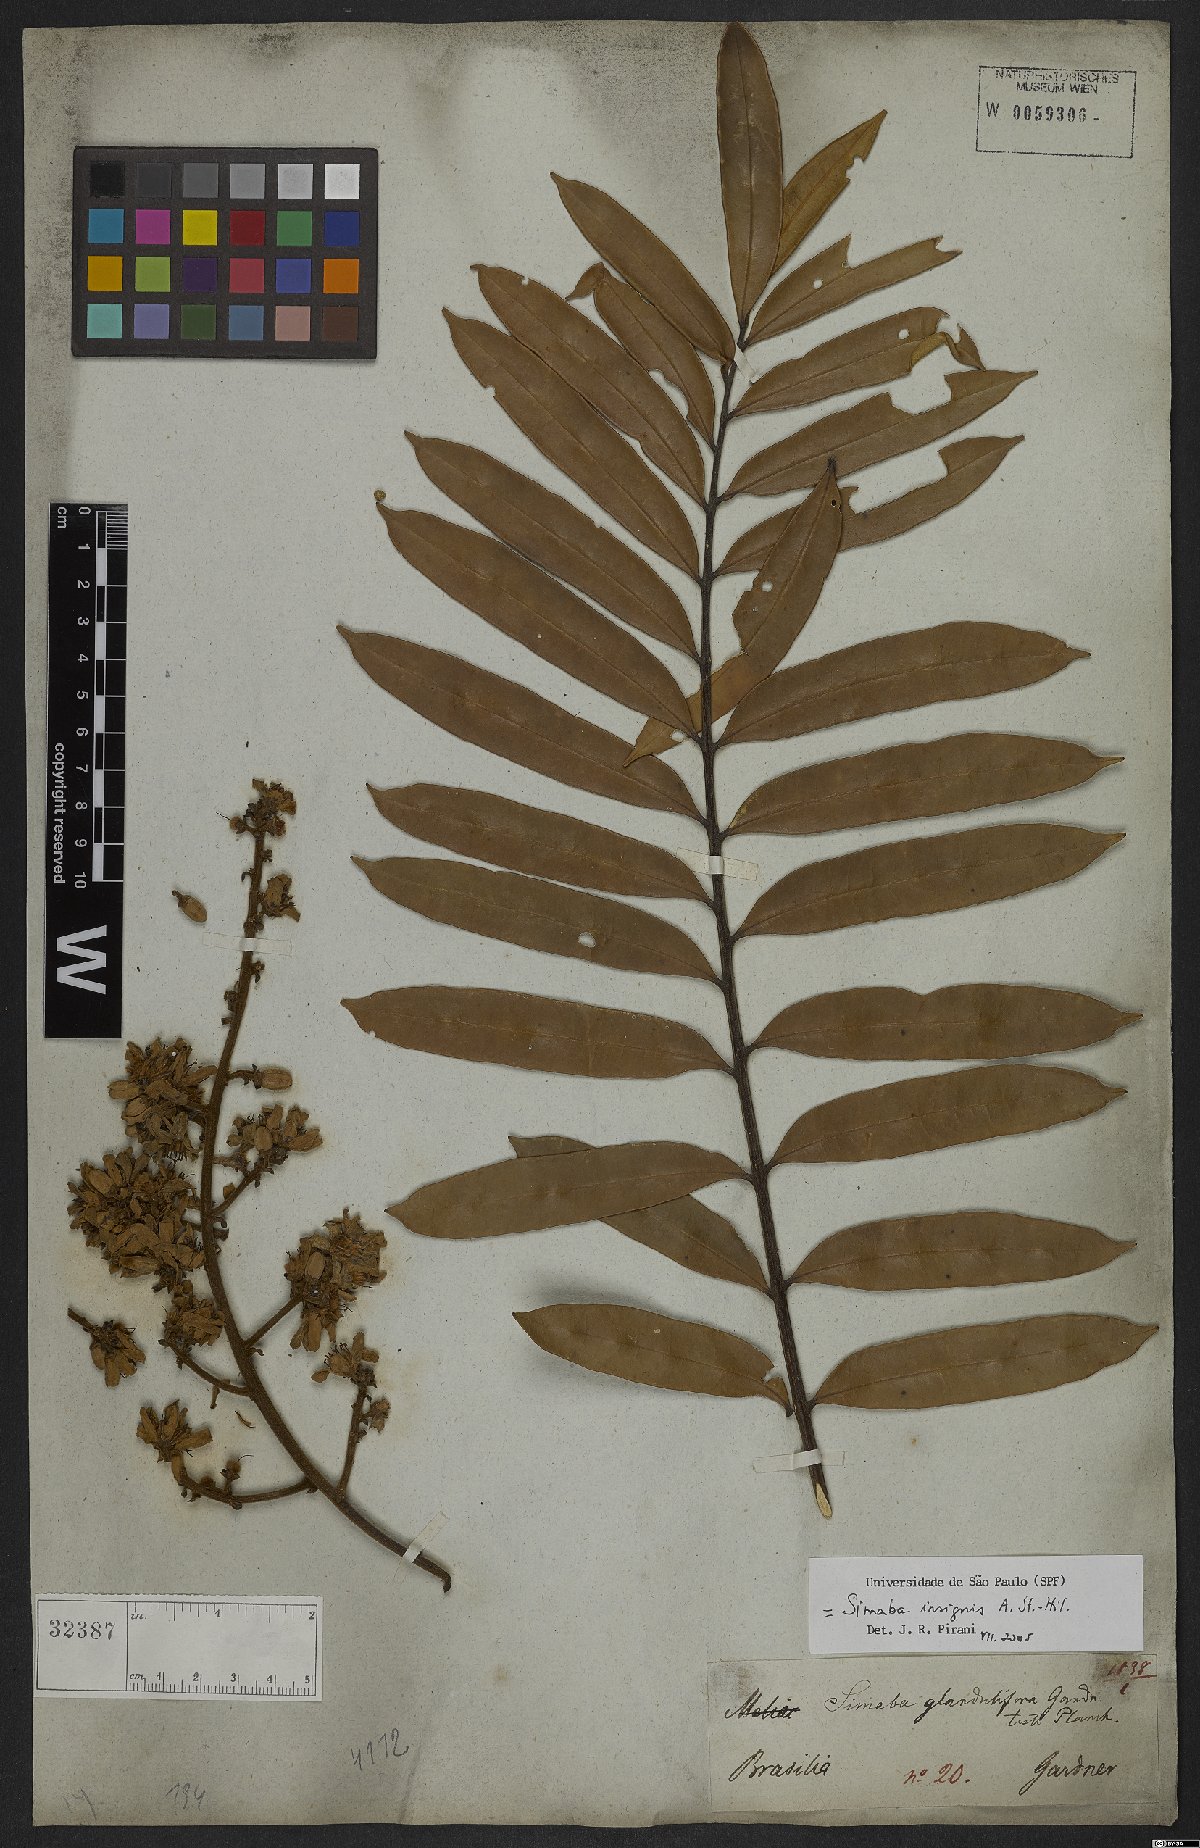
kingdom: Plantae
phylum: Tracheophyta
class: Magnoliopsida
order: Sapindales
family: Simaroubaceae
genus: Homalolepis
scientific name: Homalolepis insignis
